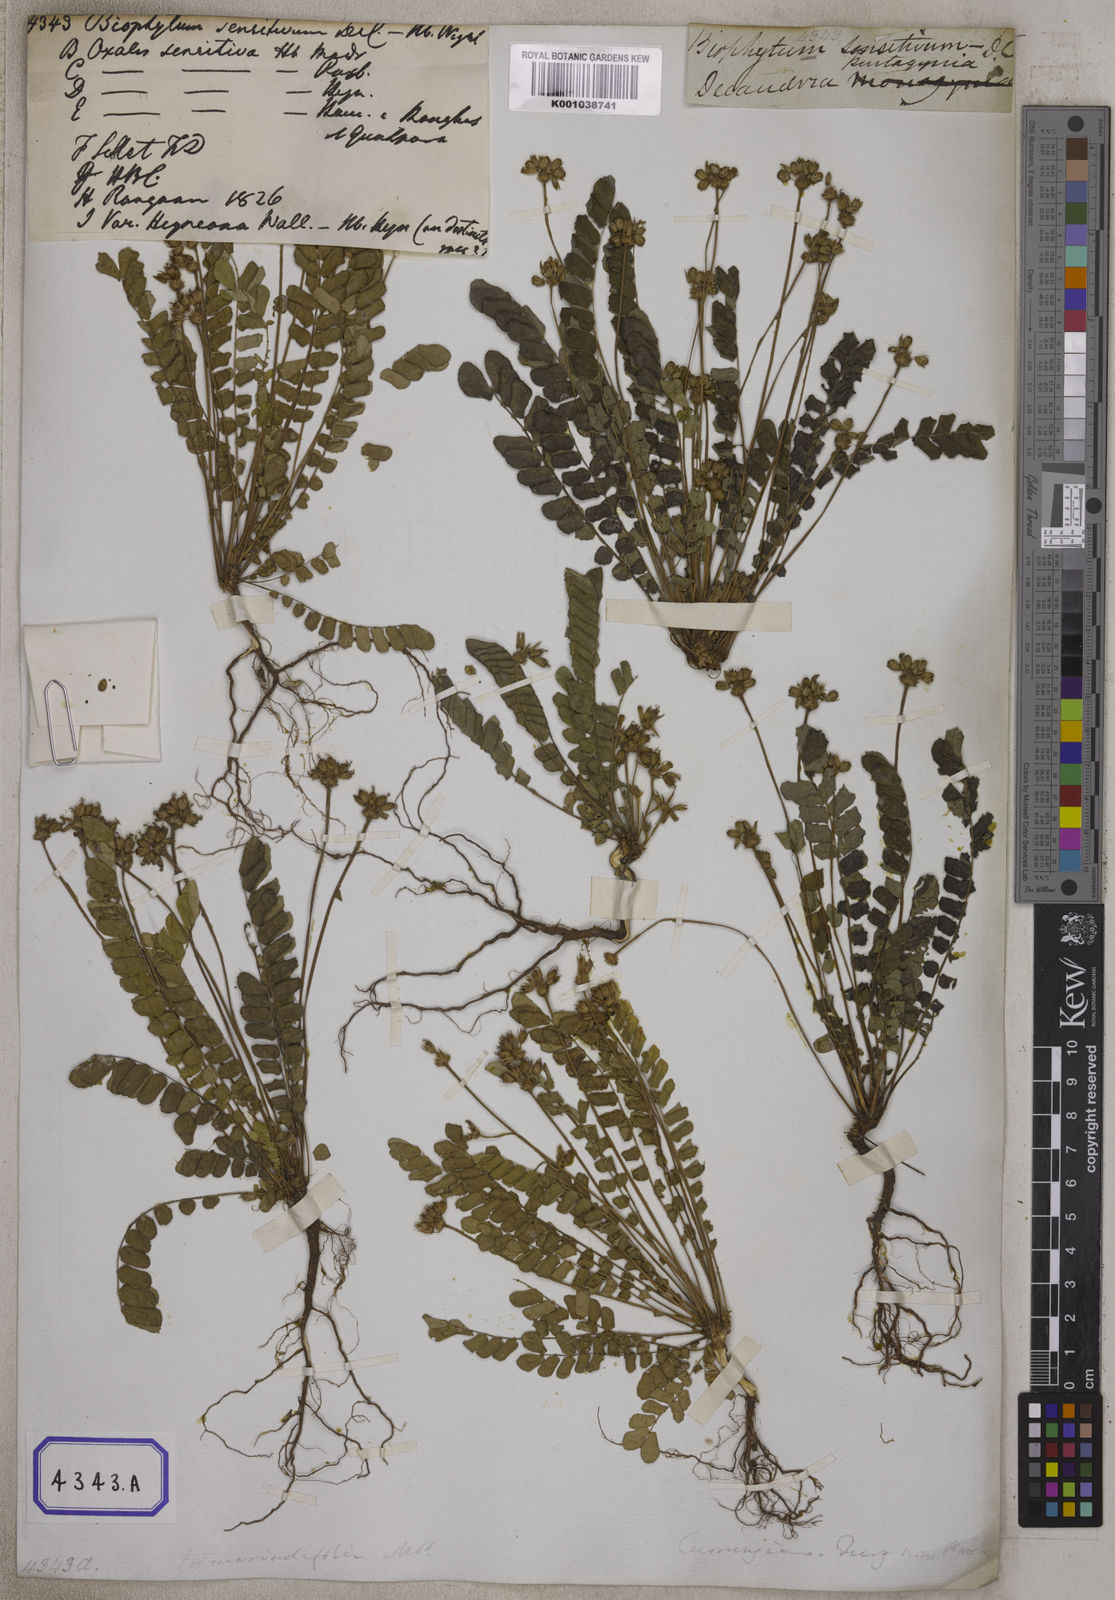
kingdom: Plantae
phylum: Tracheophyta
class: Magnoliopsida
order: Oxalidales
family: Oxalidaceae
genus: Biophytum
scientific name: Biophytum sensitivum
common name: Lifeplant
